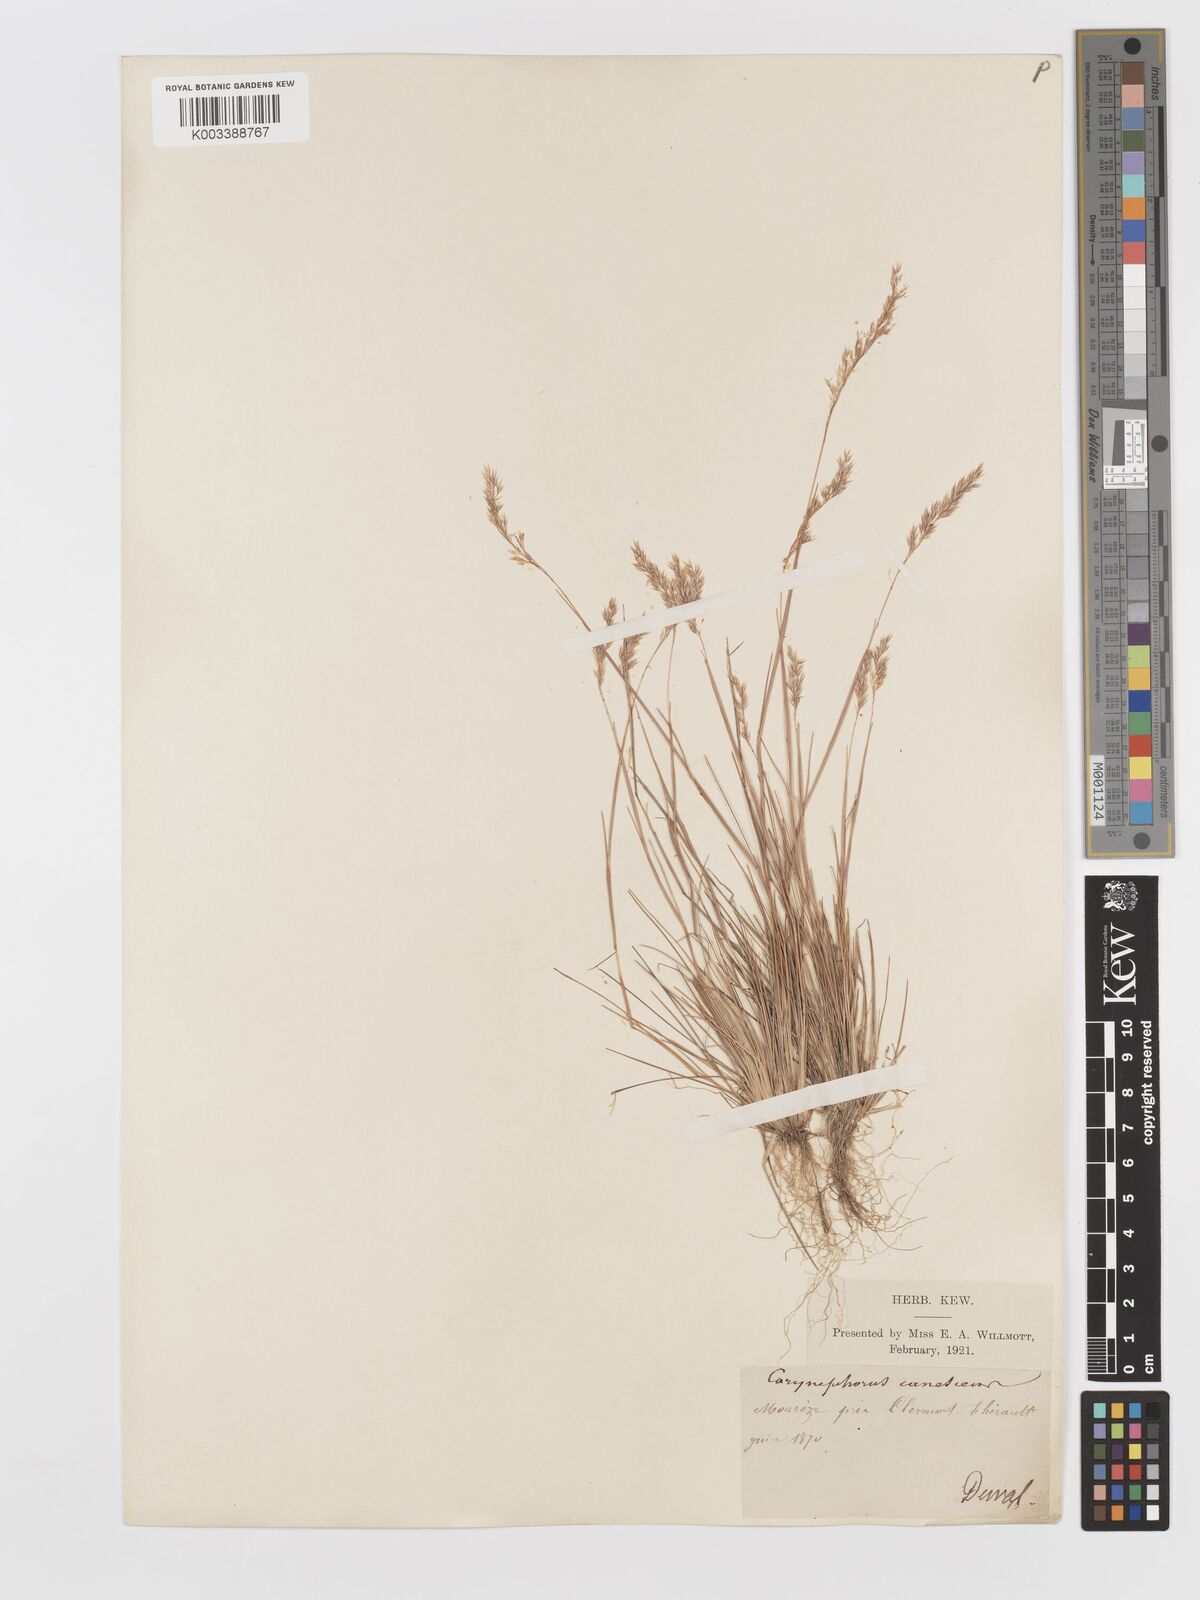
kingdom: Plantae
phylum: Tracheophyta
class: Liliopsida
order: Poales
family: Poaceae
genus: Corynephorus
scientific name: Corynephorus canescens
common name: Grey hair-grass
